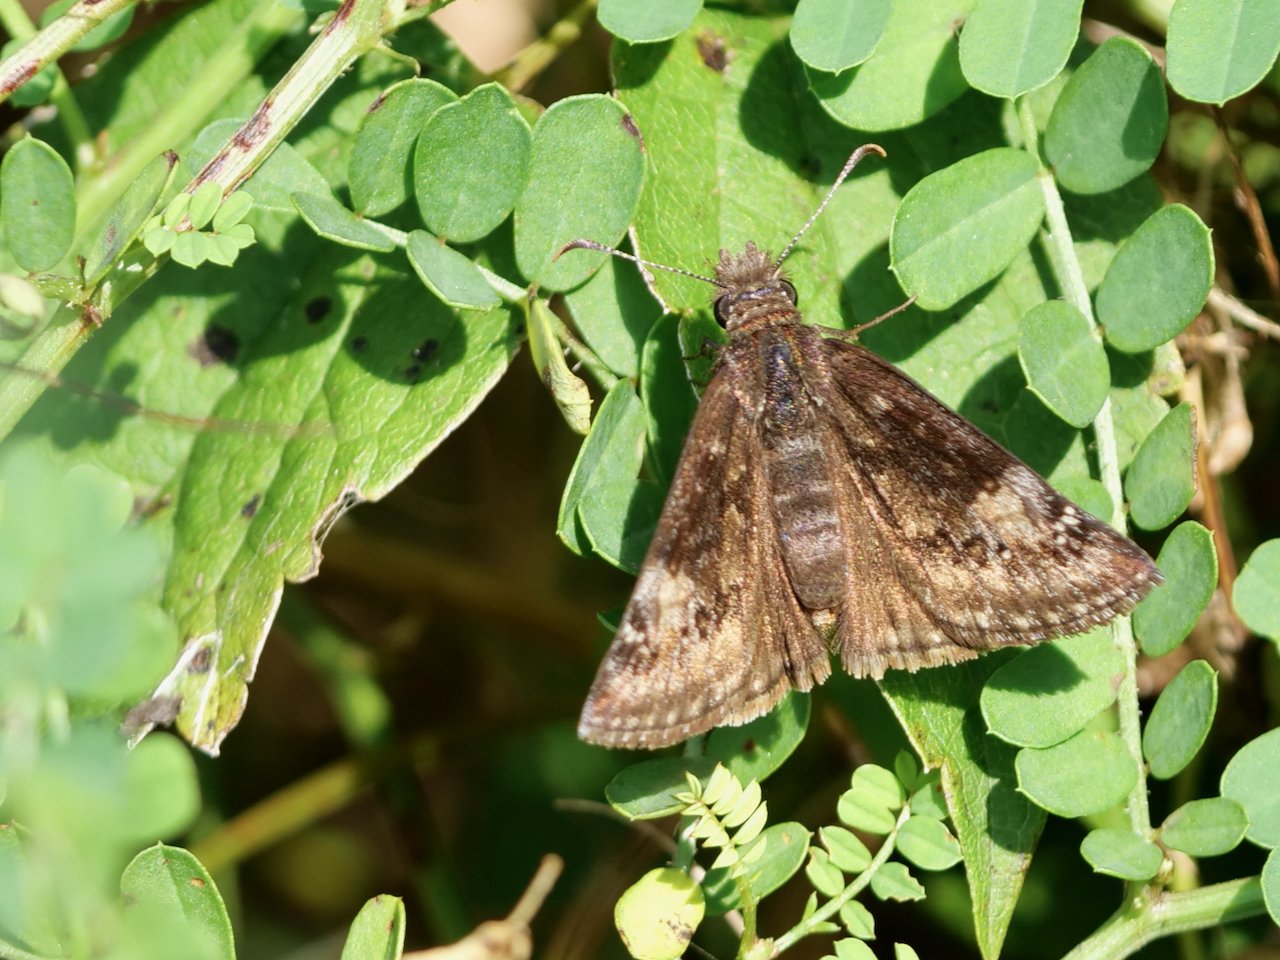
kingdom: Animalia
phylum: Arthropoda
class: Insecta
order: Lepidoptera
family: Hesperiidae
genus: Gesta
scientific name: Gesta
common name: Wild Indigo Duskywing
